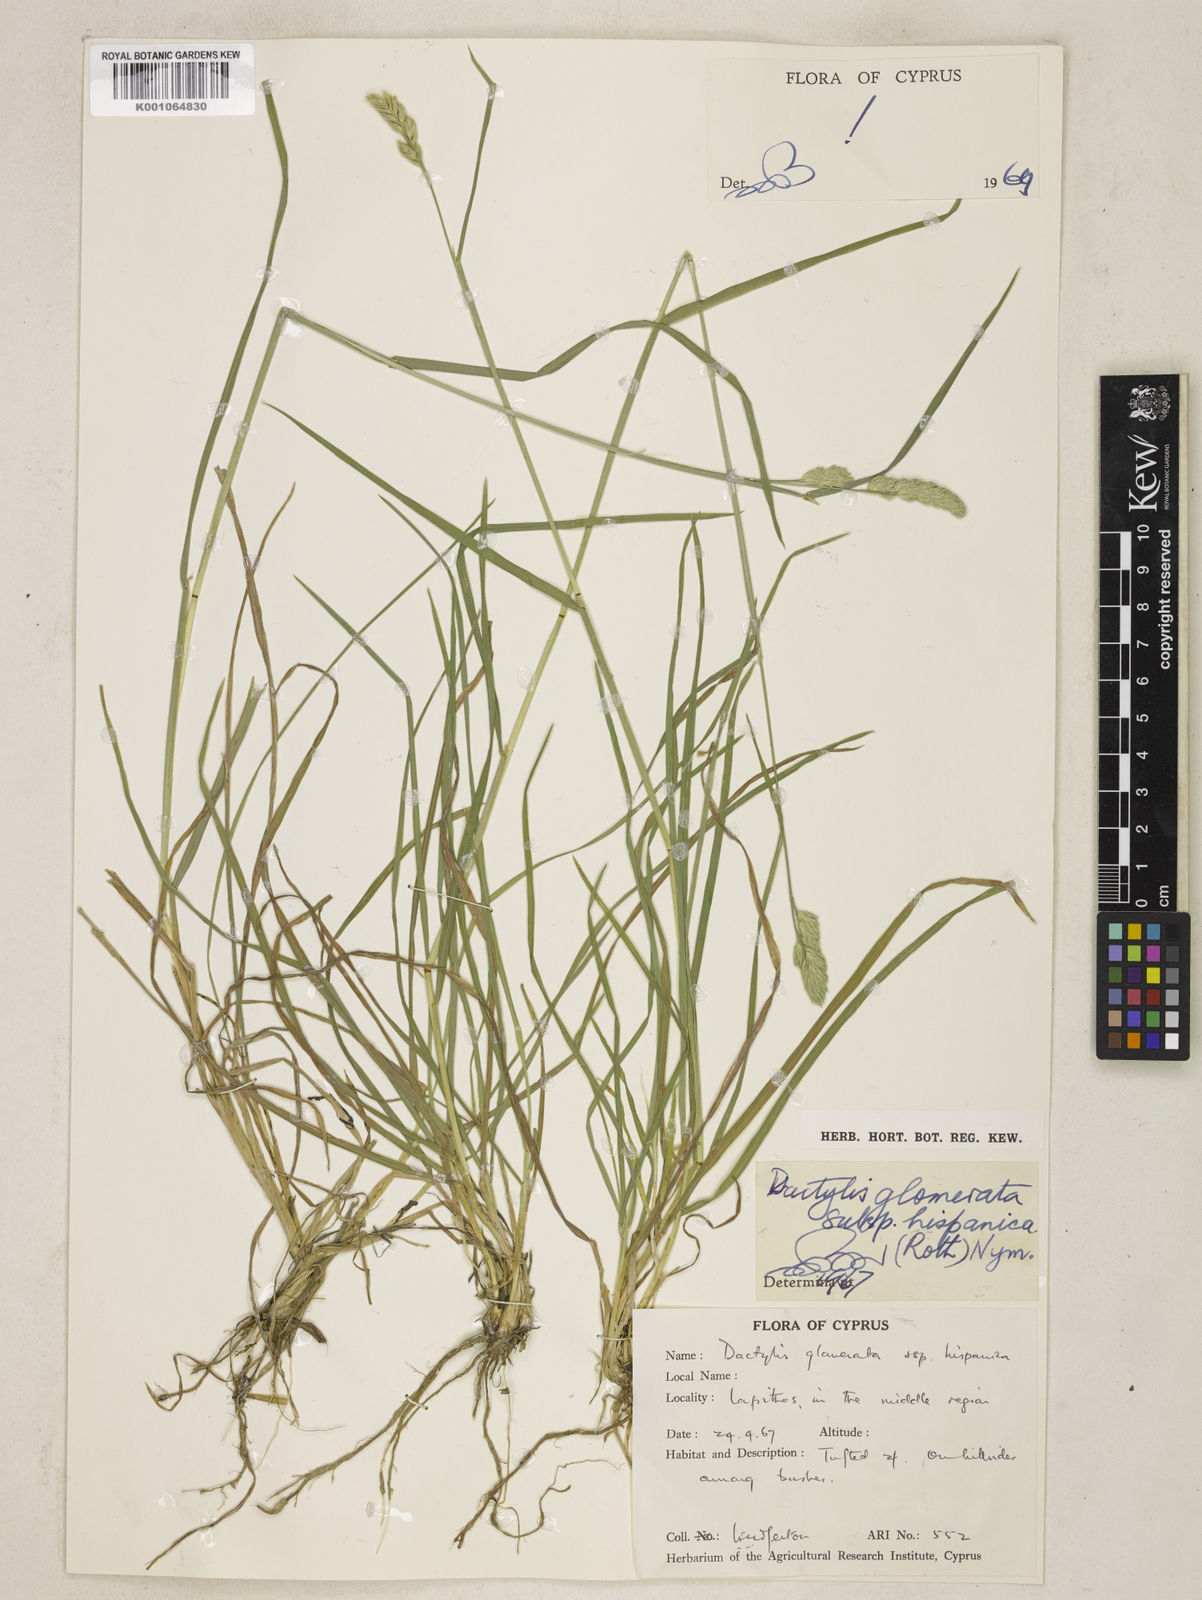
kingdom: Plantae
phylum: Tracheophyta
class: Liliopsida
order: Poales
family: Poaceae
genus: Dactylis
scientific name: Dactylis glomerata
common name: Orchardgrass
